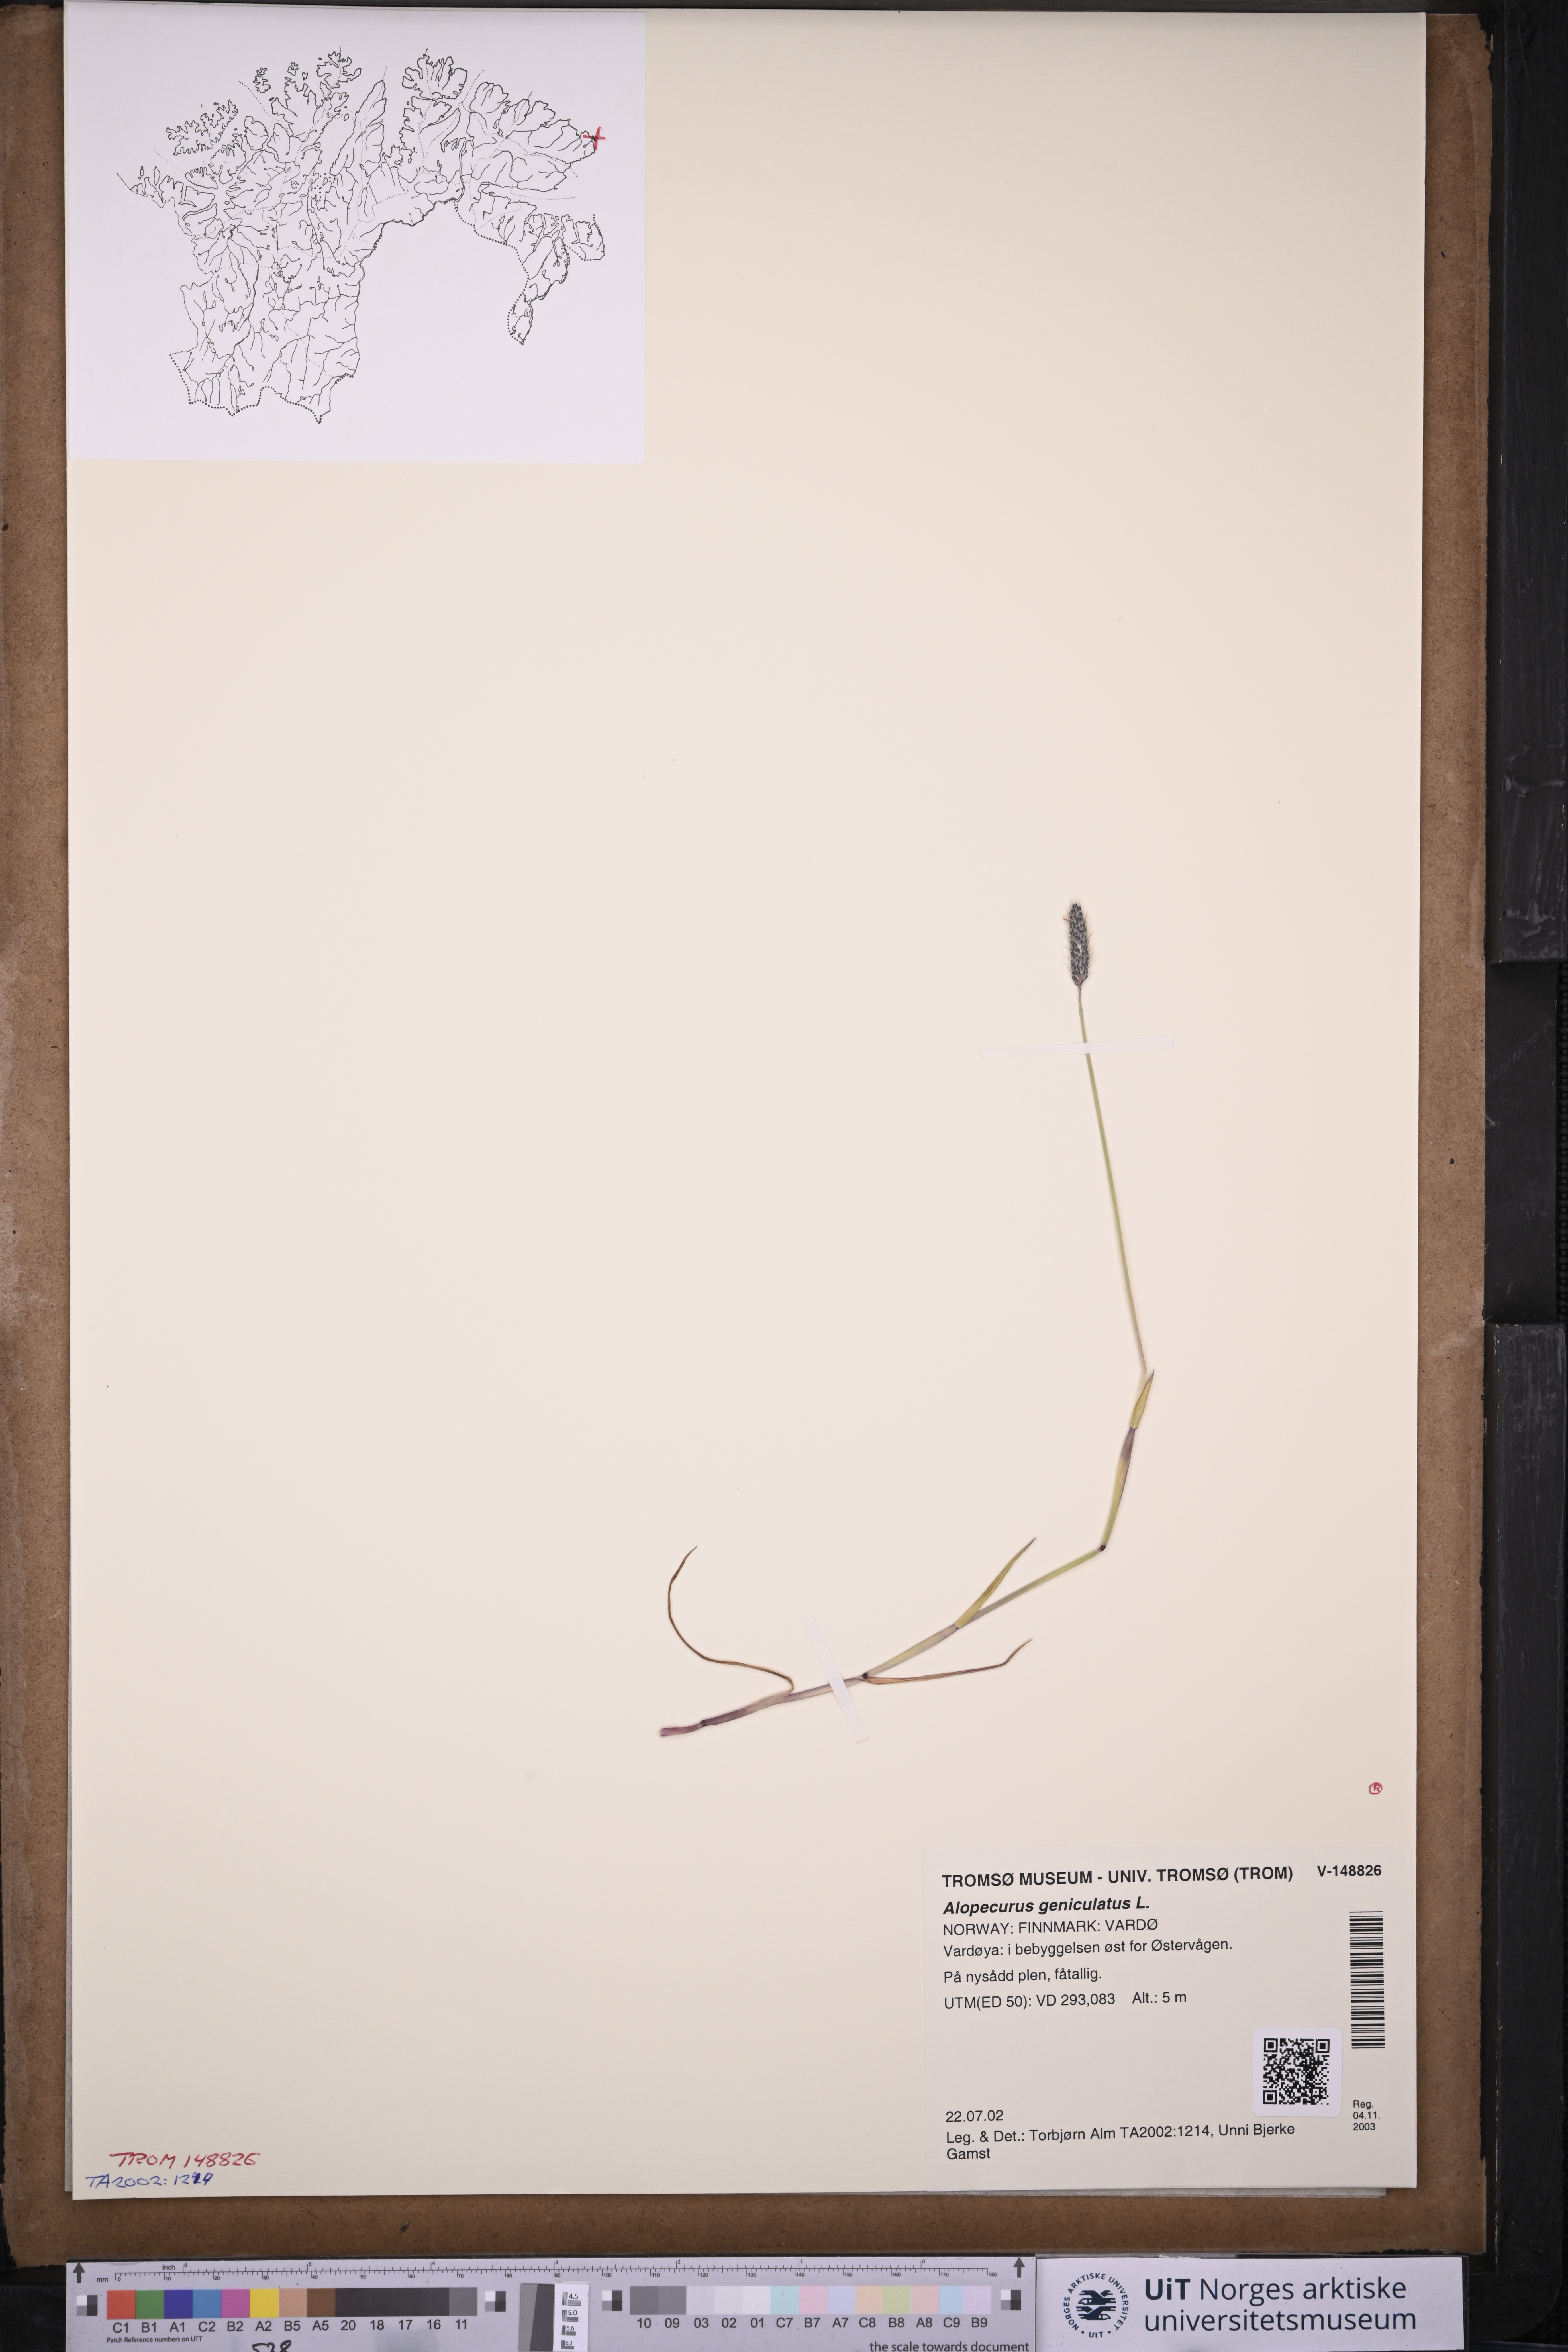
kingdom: Plantae
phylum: Tracheophyta
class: Liliopsida
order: Poales
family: Poaceae
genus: Alopecurus
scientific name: Alopecurus geniculatus
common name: Water foxtail
